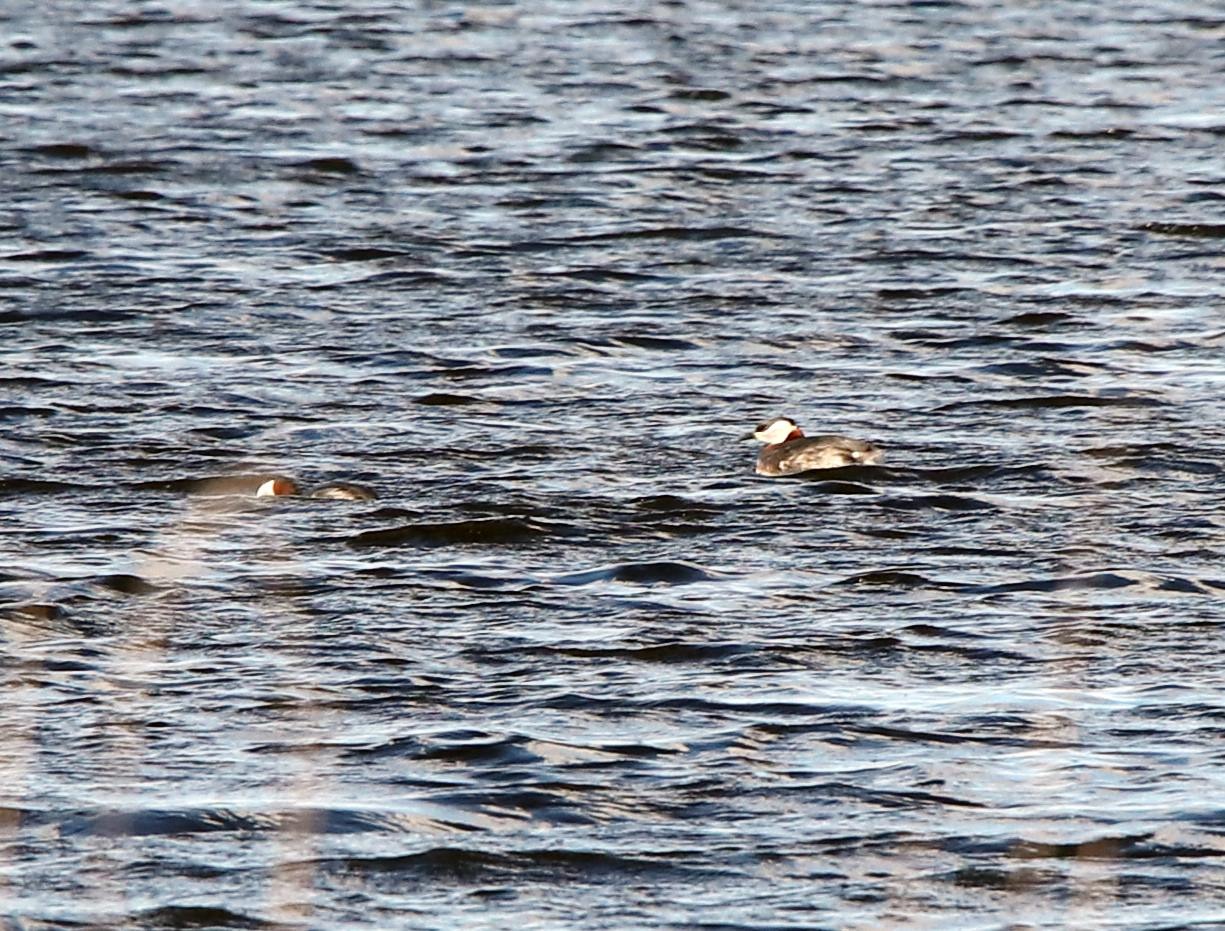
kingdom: Animalia
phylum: Chordata
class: Aves
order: Podicipediformes
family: Podicipedidae
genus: Podiceps
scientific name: Podiceps grisegena
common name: Gråstrubet lappedykker
